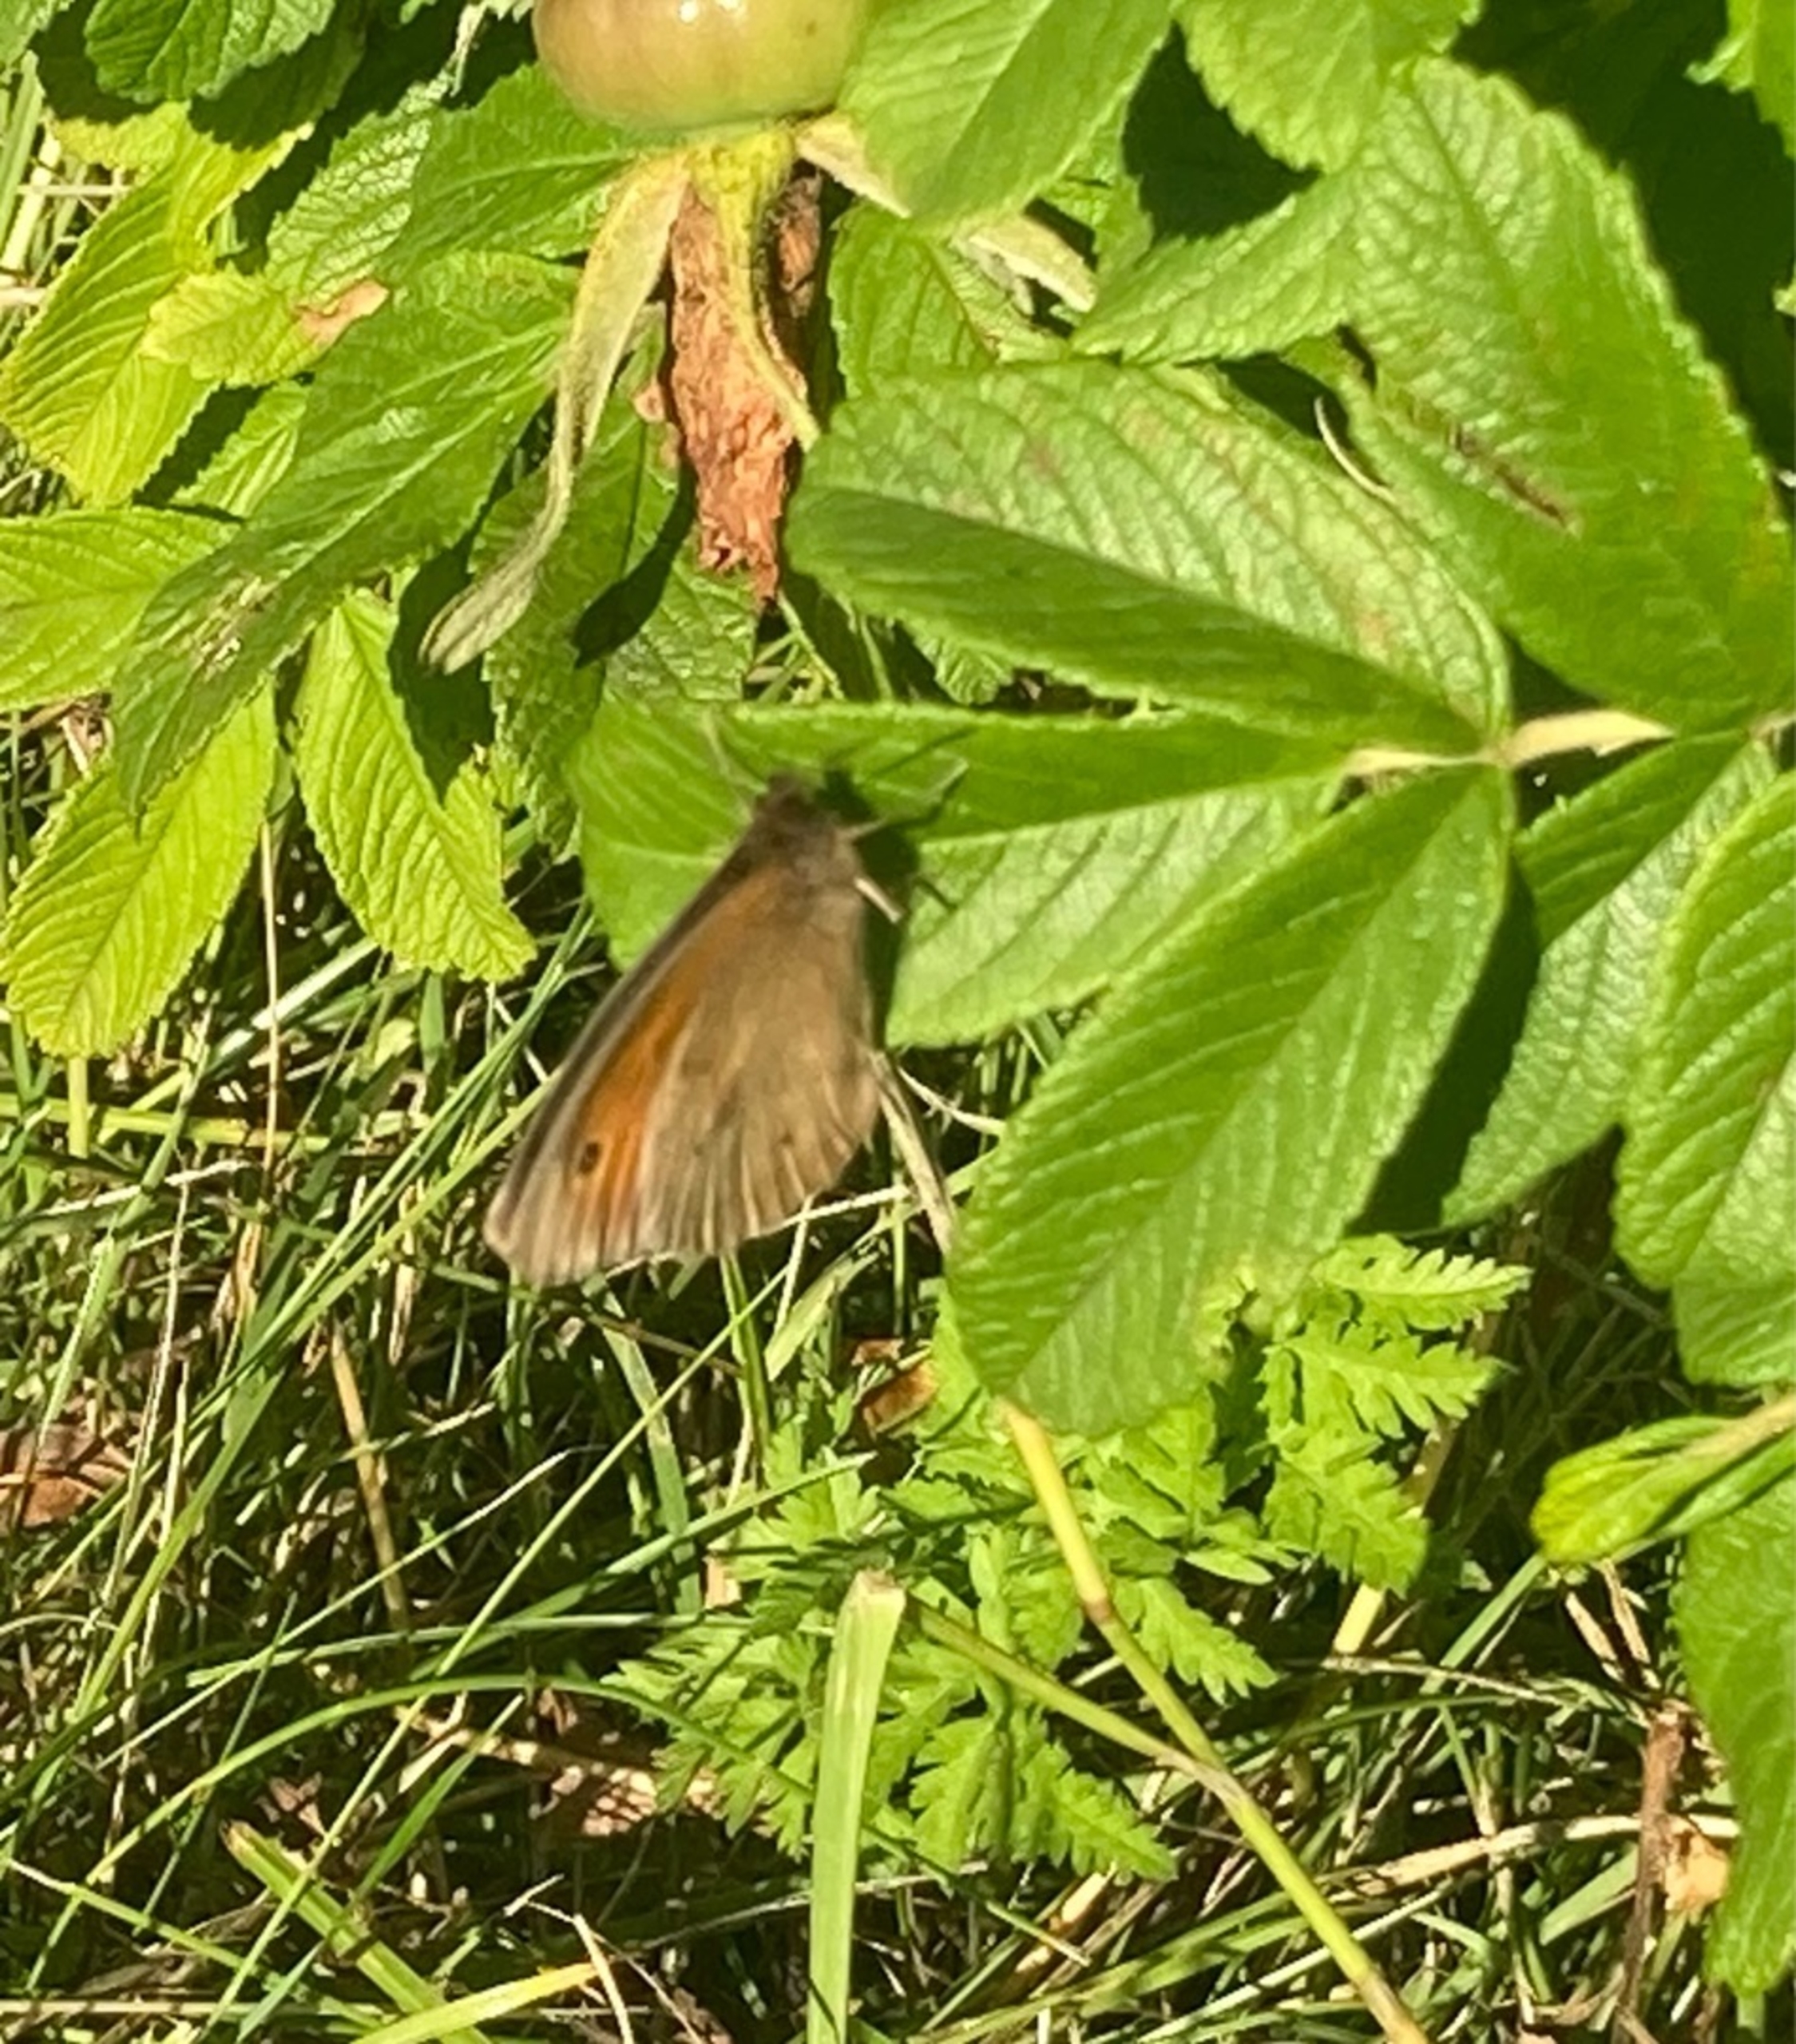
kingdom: Animalia
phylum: Arthropoda
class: Insecta
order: Lepidoptera
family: Nymphalidae
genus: Maniola
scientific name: Maniola jurtina
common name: Græsrandøje
